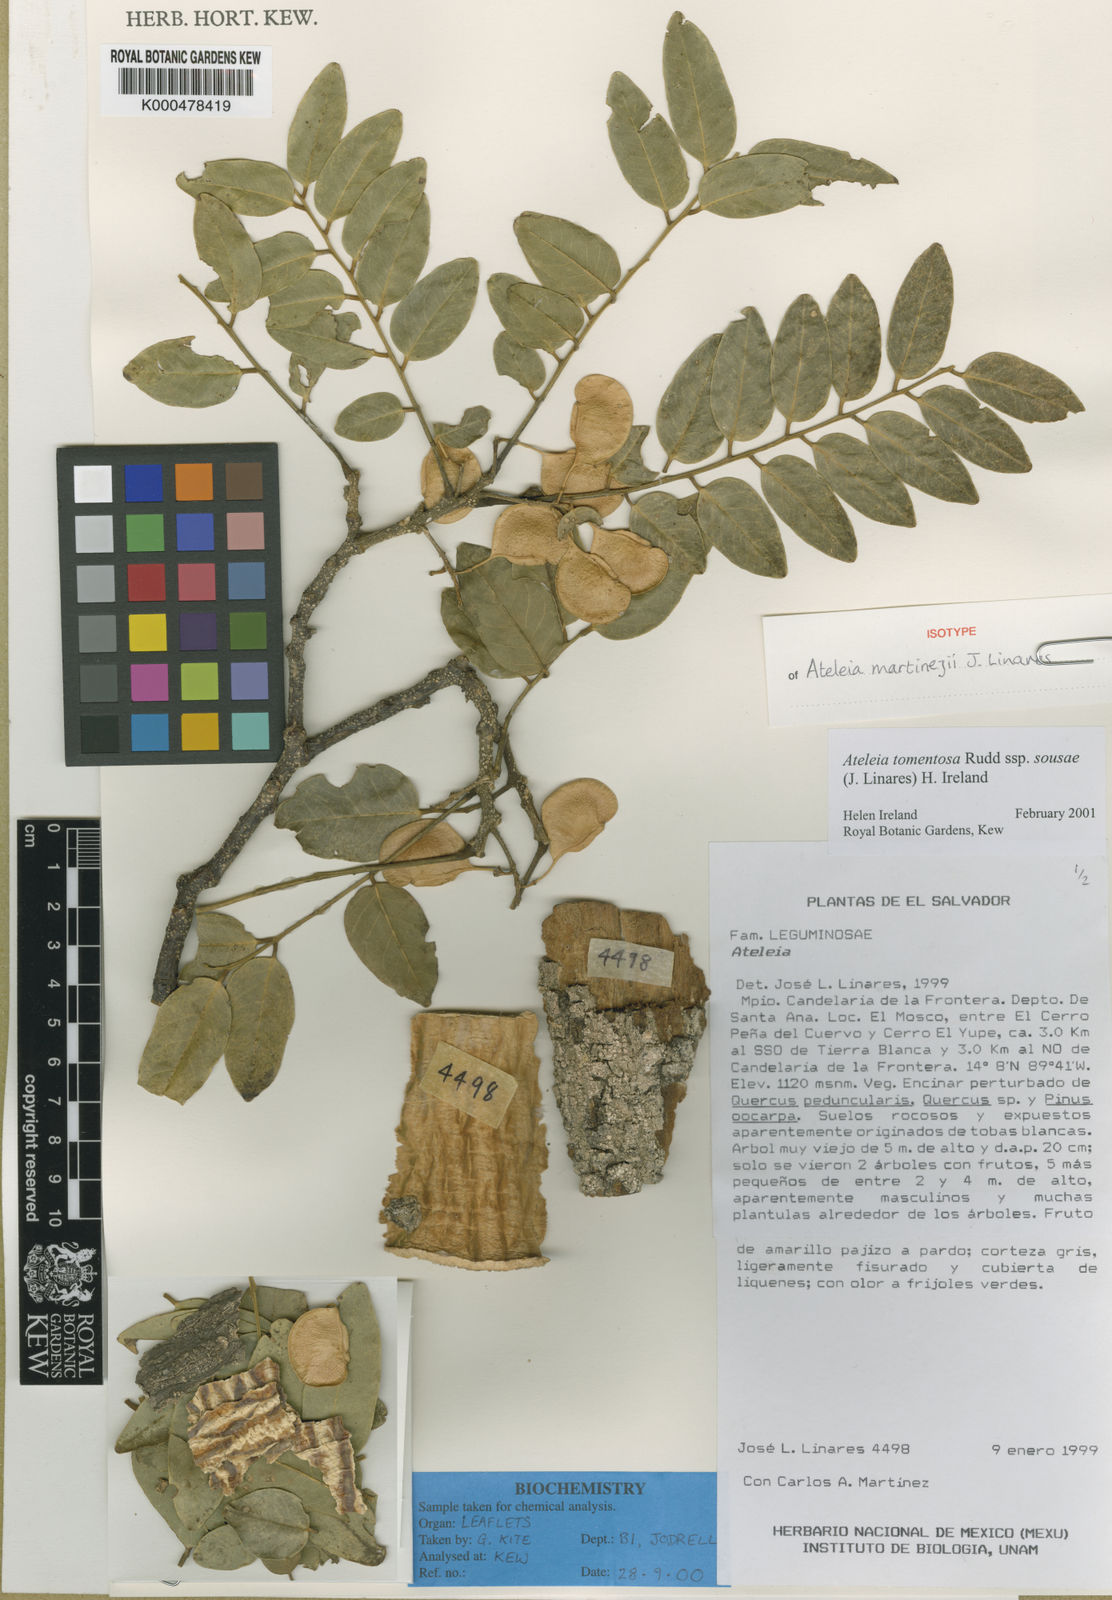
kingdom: Plantae
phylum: Tracheophyta
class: Magnoliopsida
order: Fabales
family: Fabaceae
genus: Ateleia
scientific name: Ateleia tomentosa
